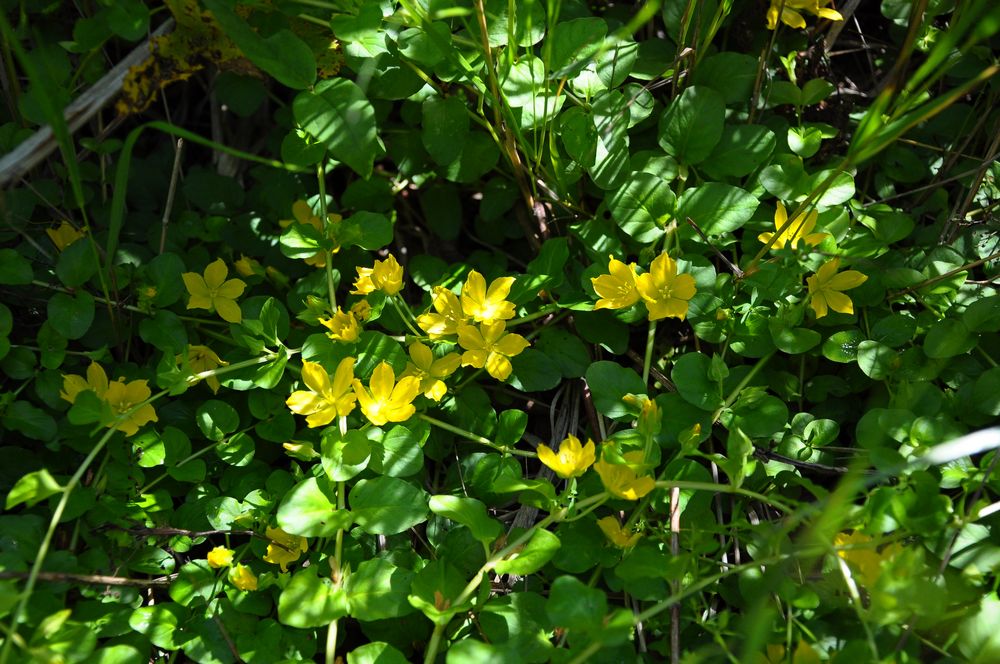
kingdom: Plantae
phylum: Tracheophyta
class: Magnoliopsida
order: Ericales
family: Primulaceae
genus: Lysimachia
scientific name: Lysimachia nummularia
